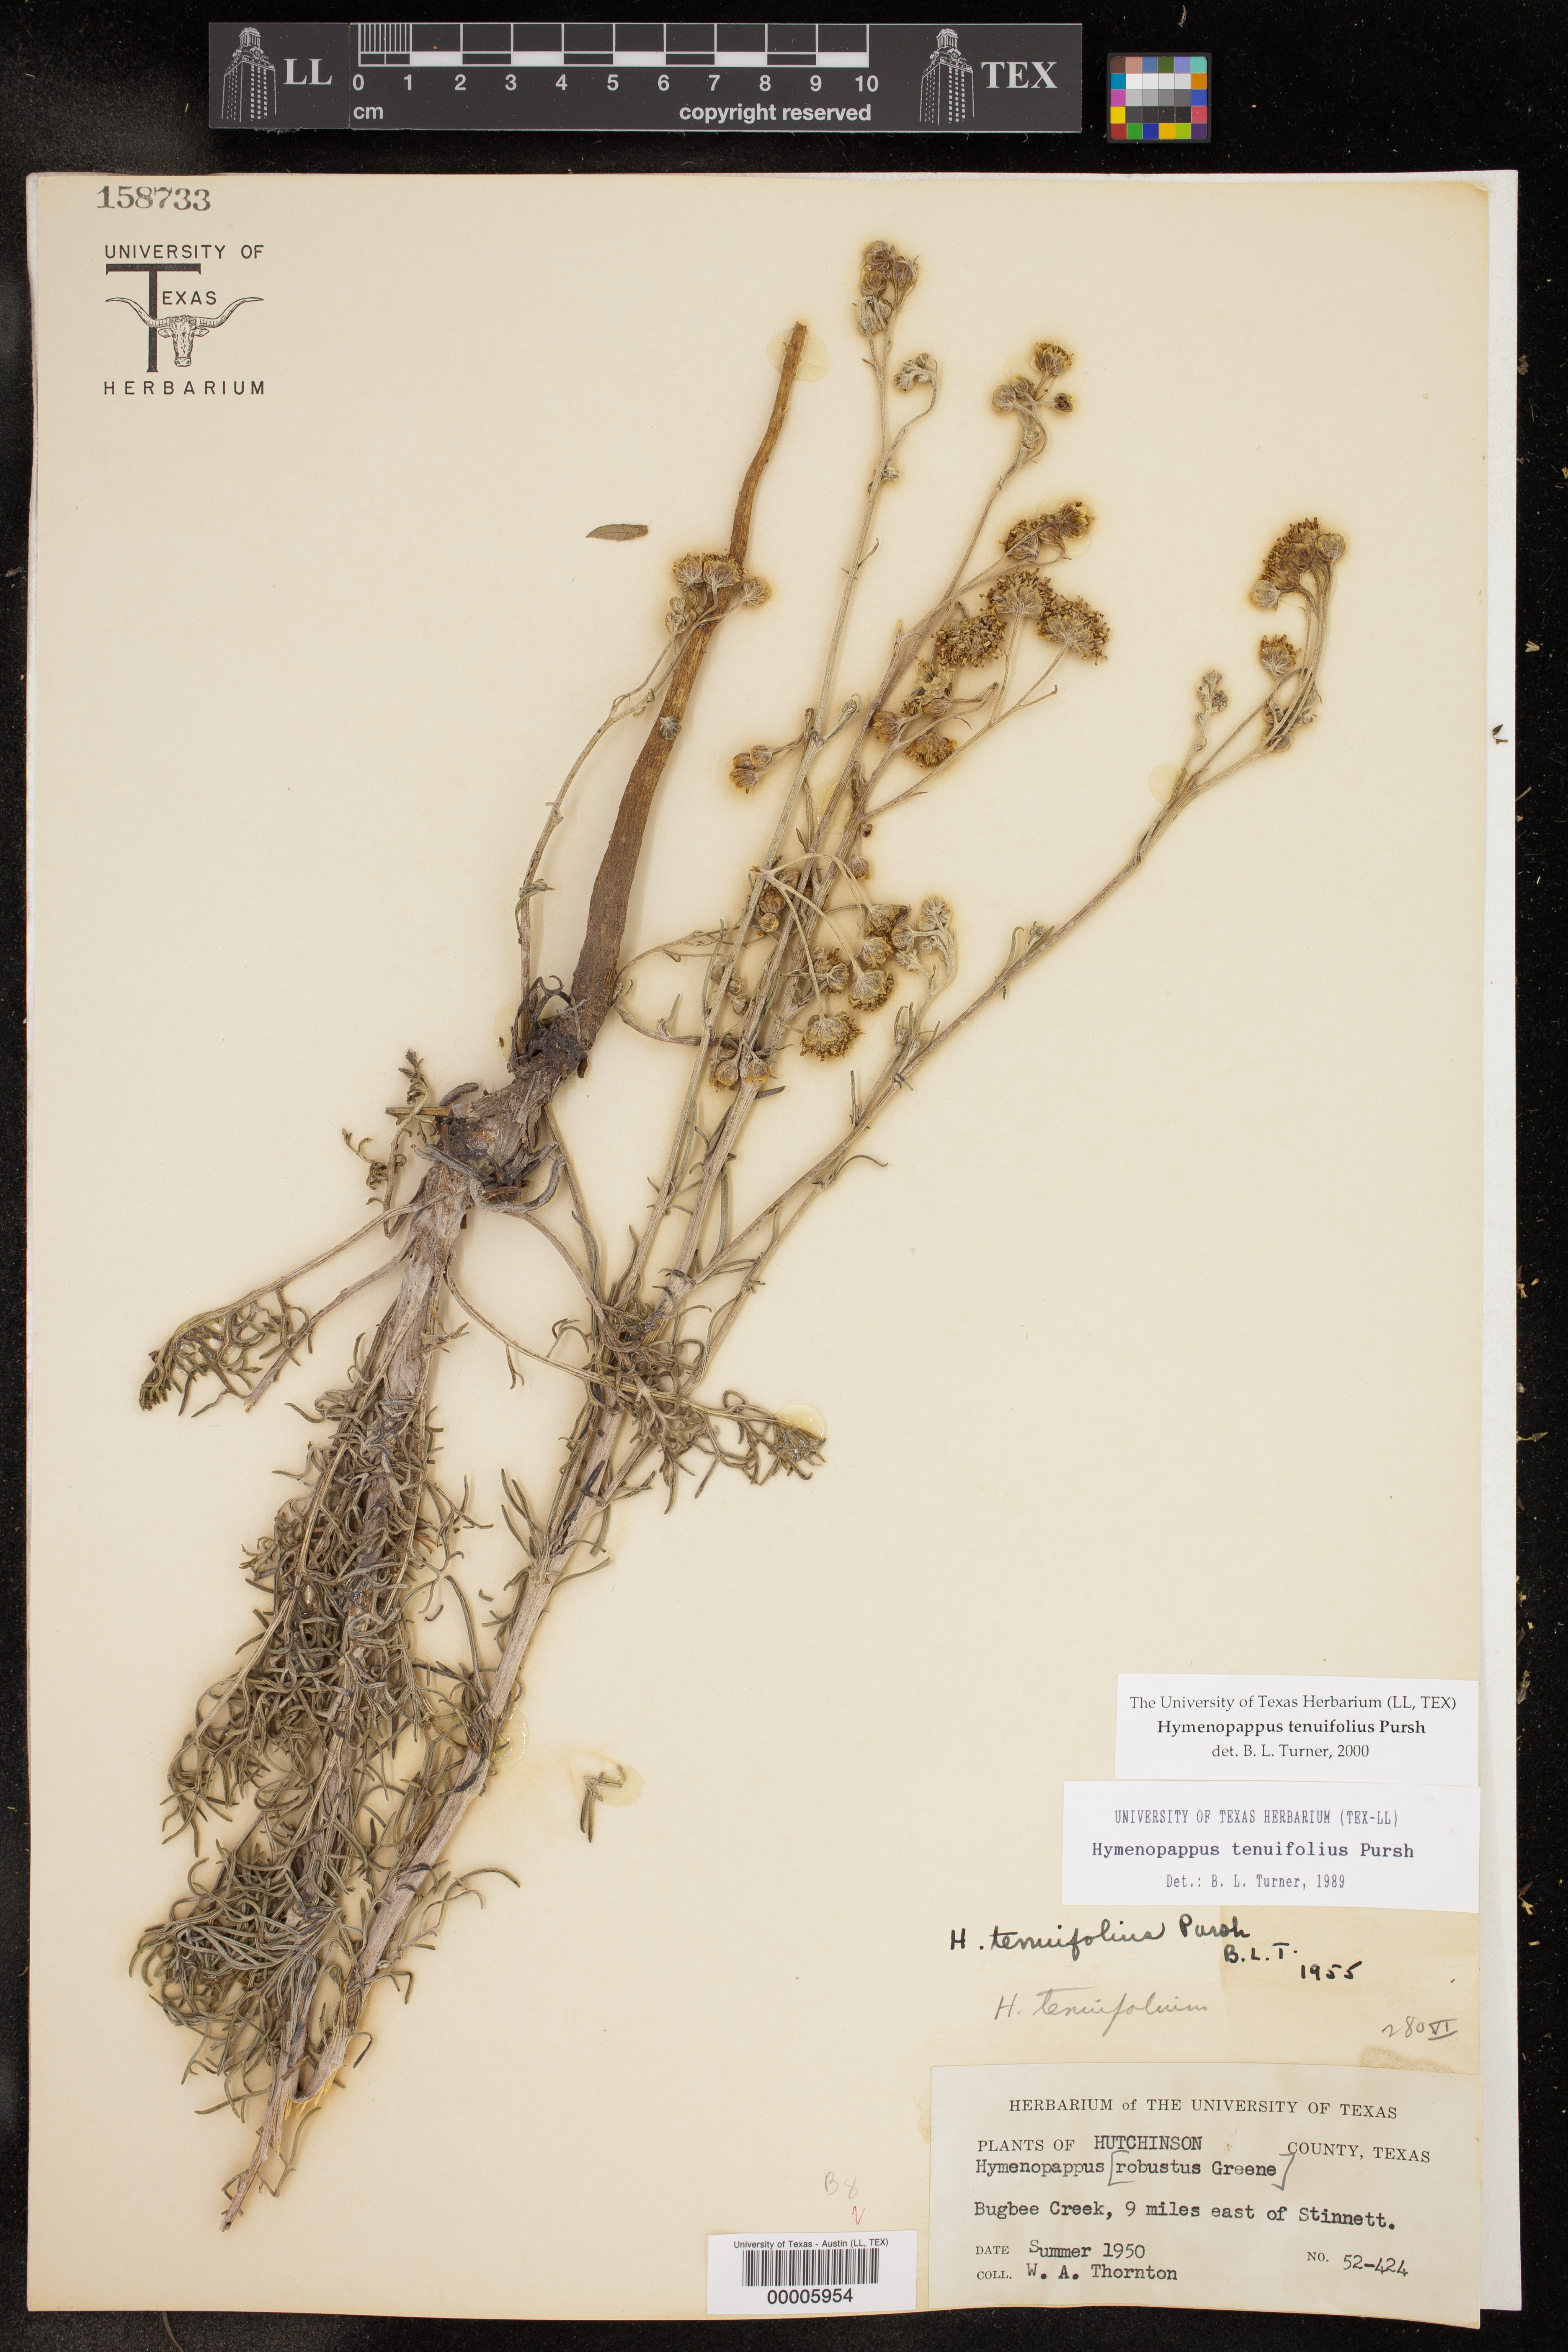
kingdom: Plantae
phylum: Tracheophyta
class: Magnoliopsida
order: Asterales
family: Asteraceae
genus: Hymenopappus
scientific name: Hymenopappus tenuifolius
